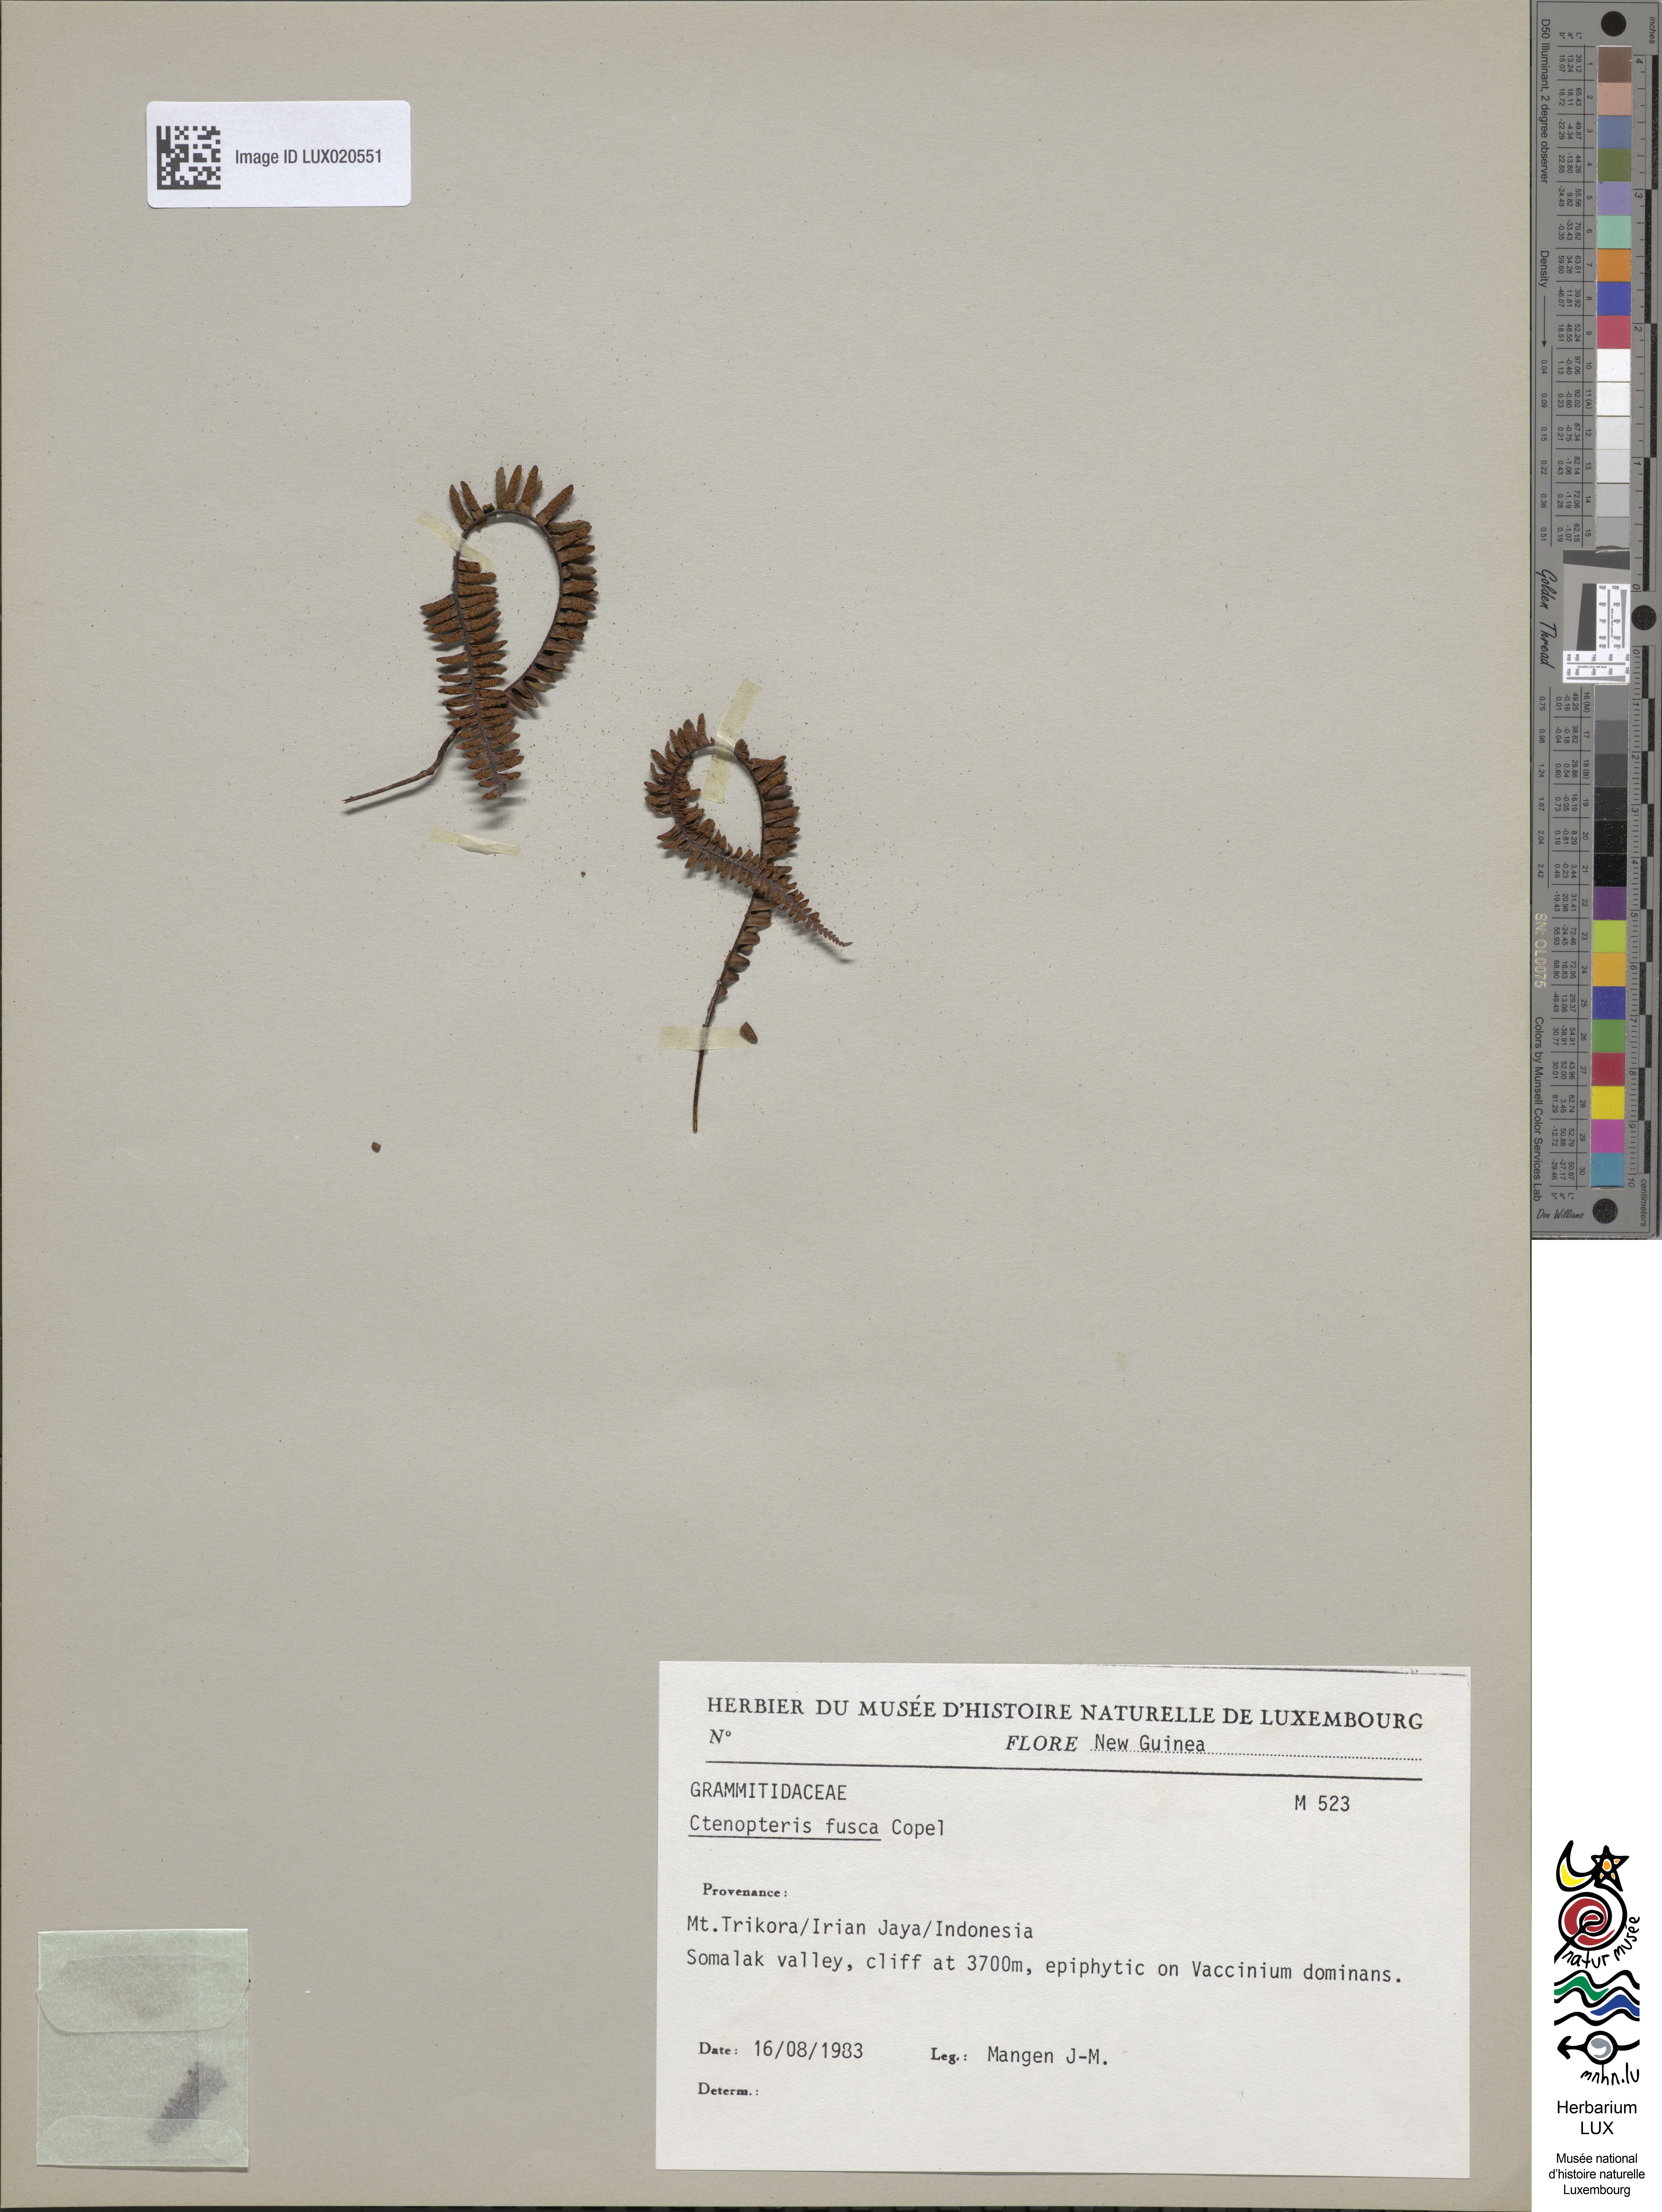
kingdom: Plantae
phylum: Tracheophyta
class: Polypodiopsida
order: Polypodiales
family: Polypodiaceae
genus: Prosaptia
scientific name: Prosaptia fusca
